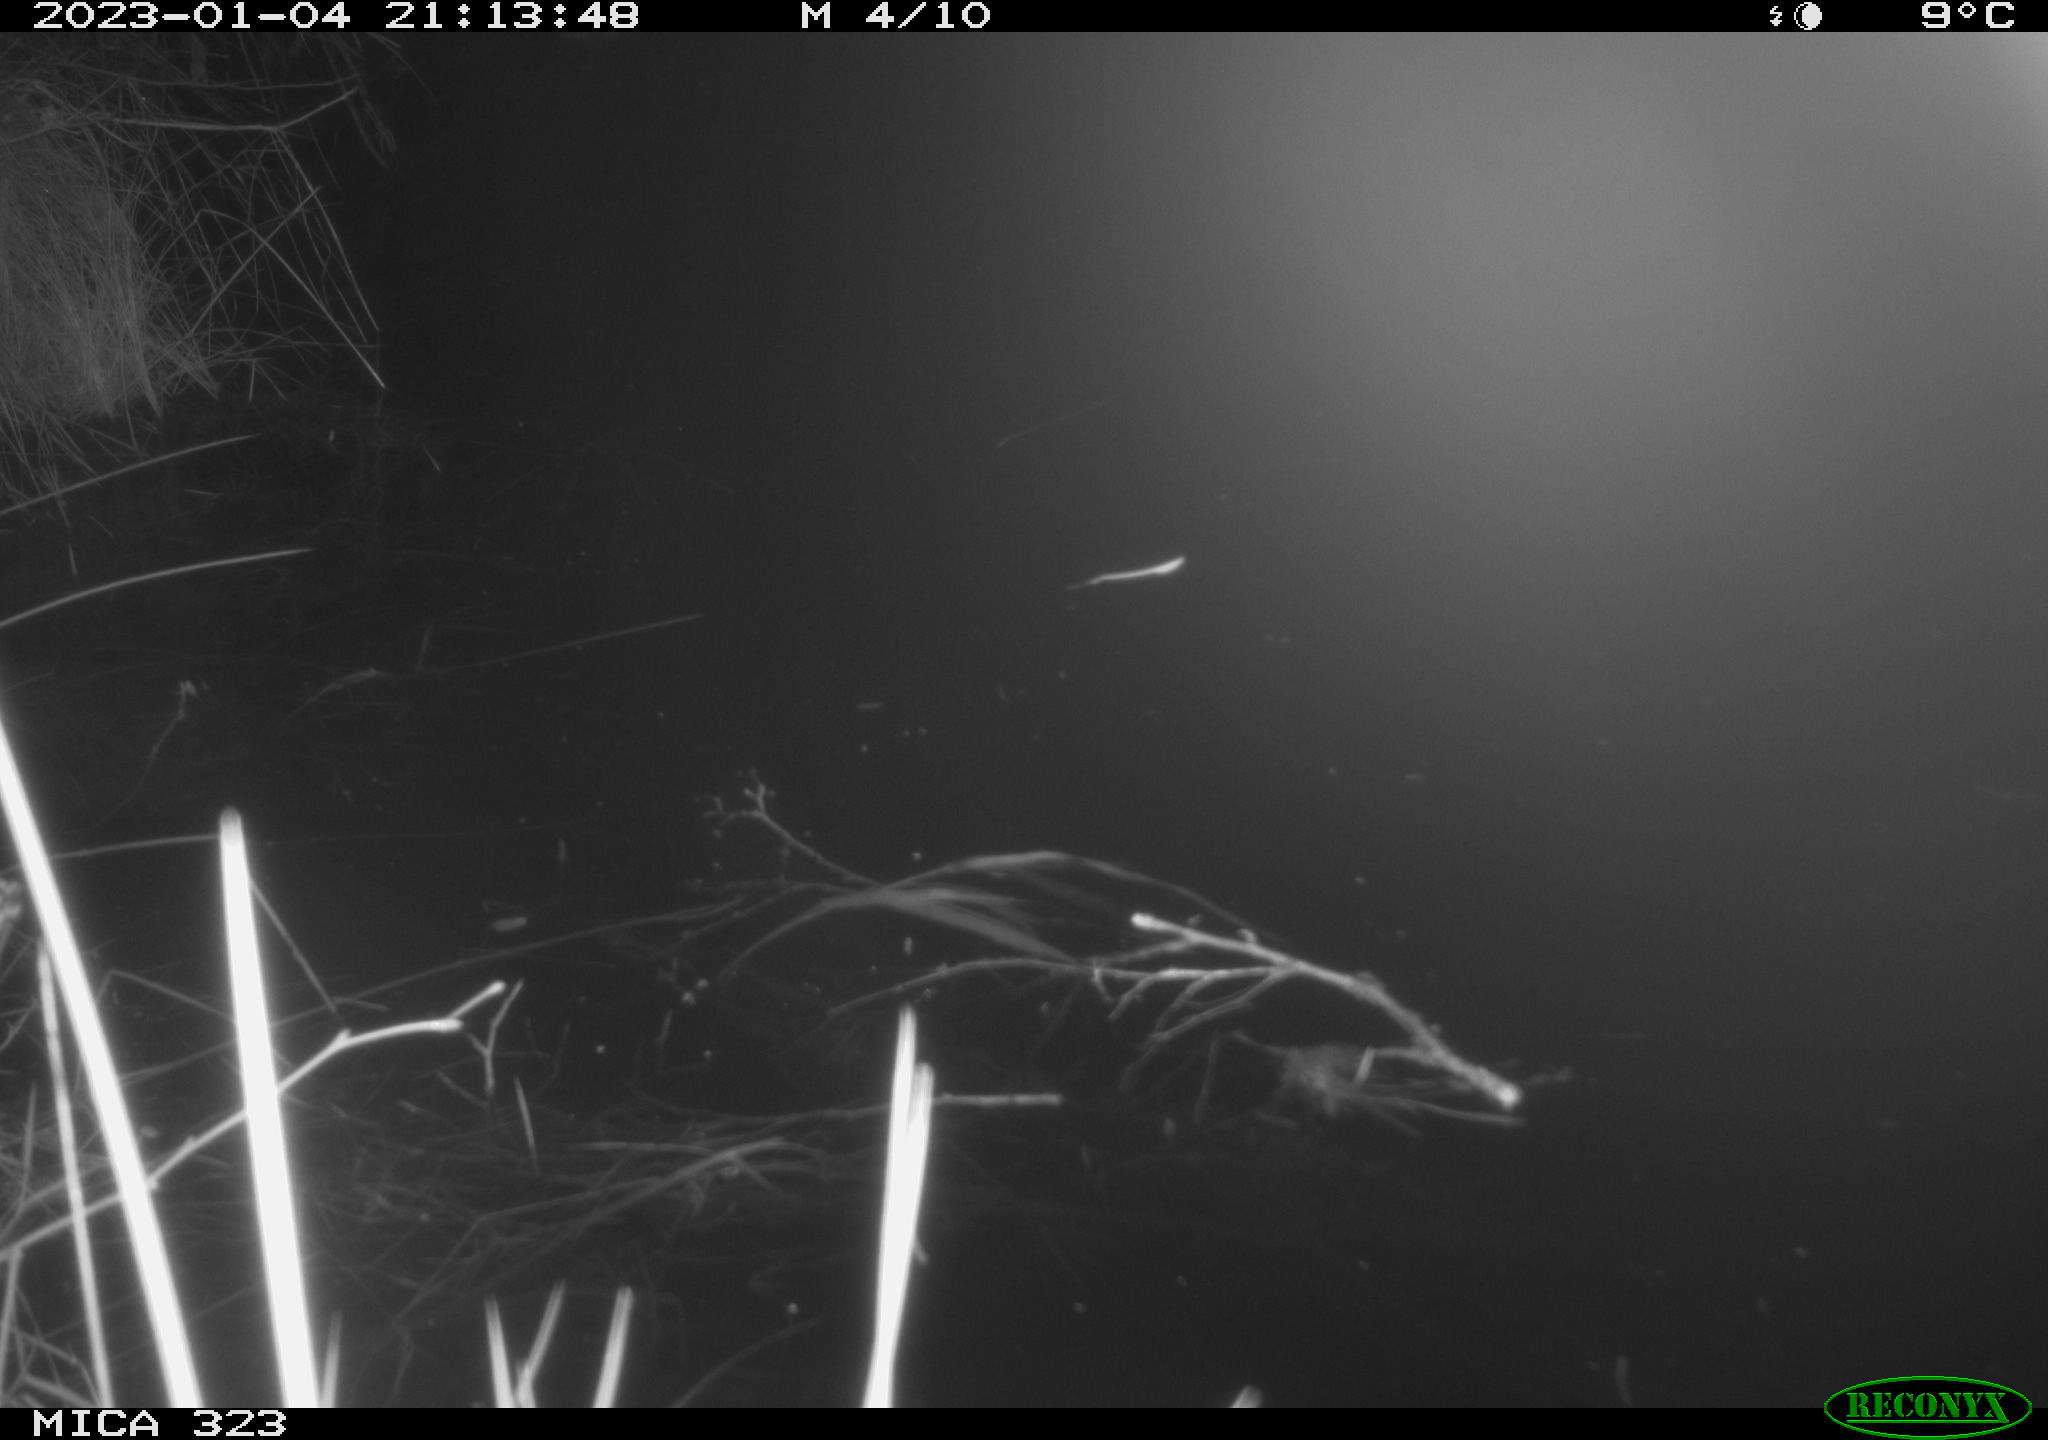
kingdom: Animalia
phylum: Chordata
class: Mammalia
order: Rodentia
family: Cricetidae
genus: Ondatra
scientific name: Ondatra zibethicus
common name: Muskrat
